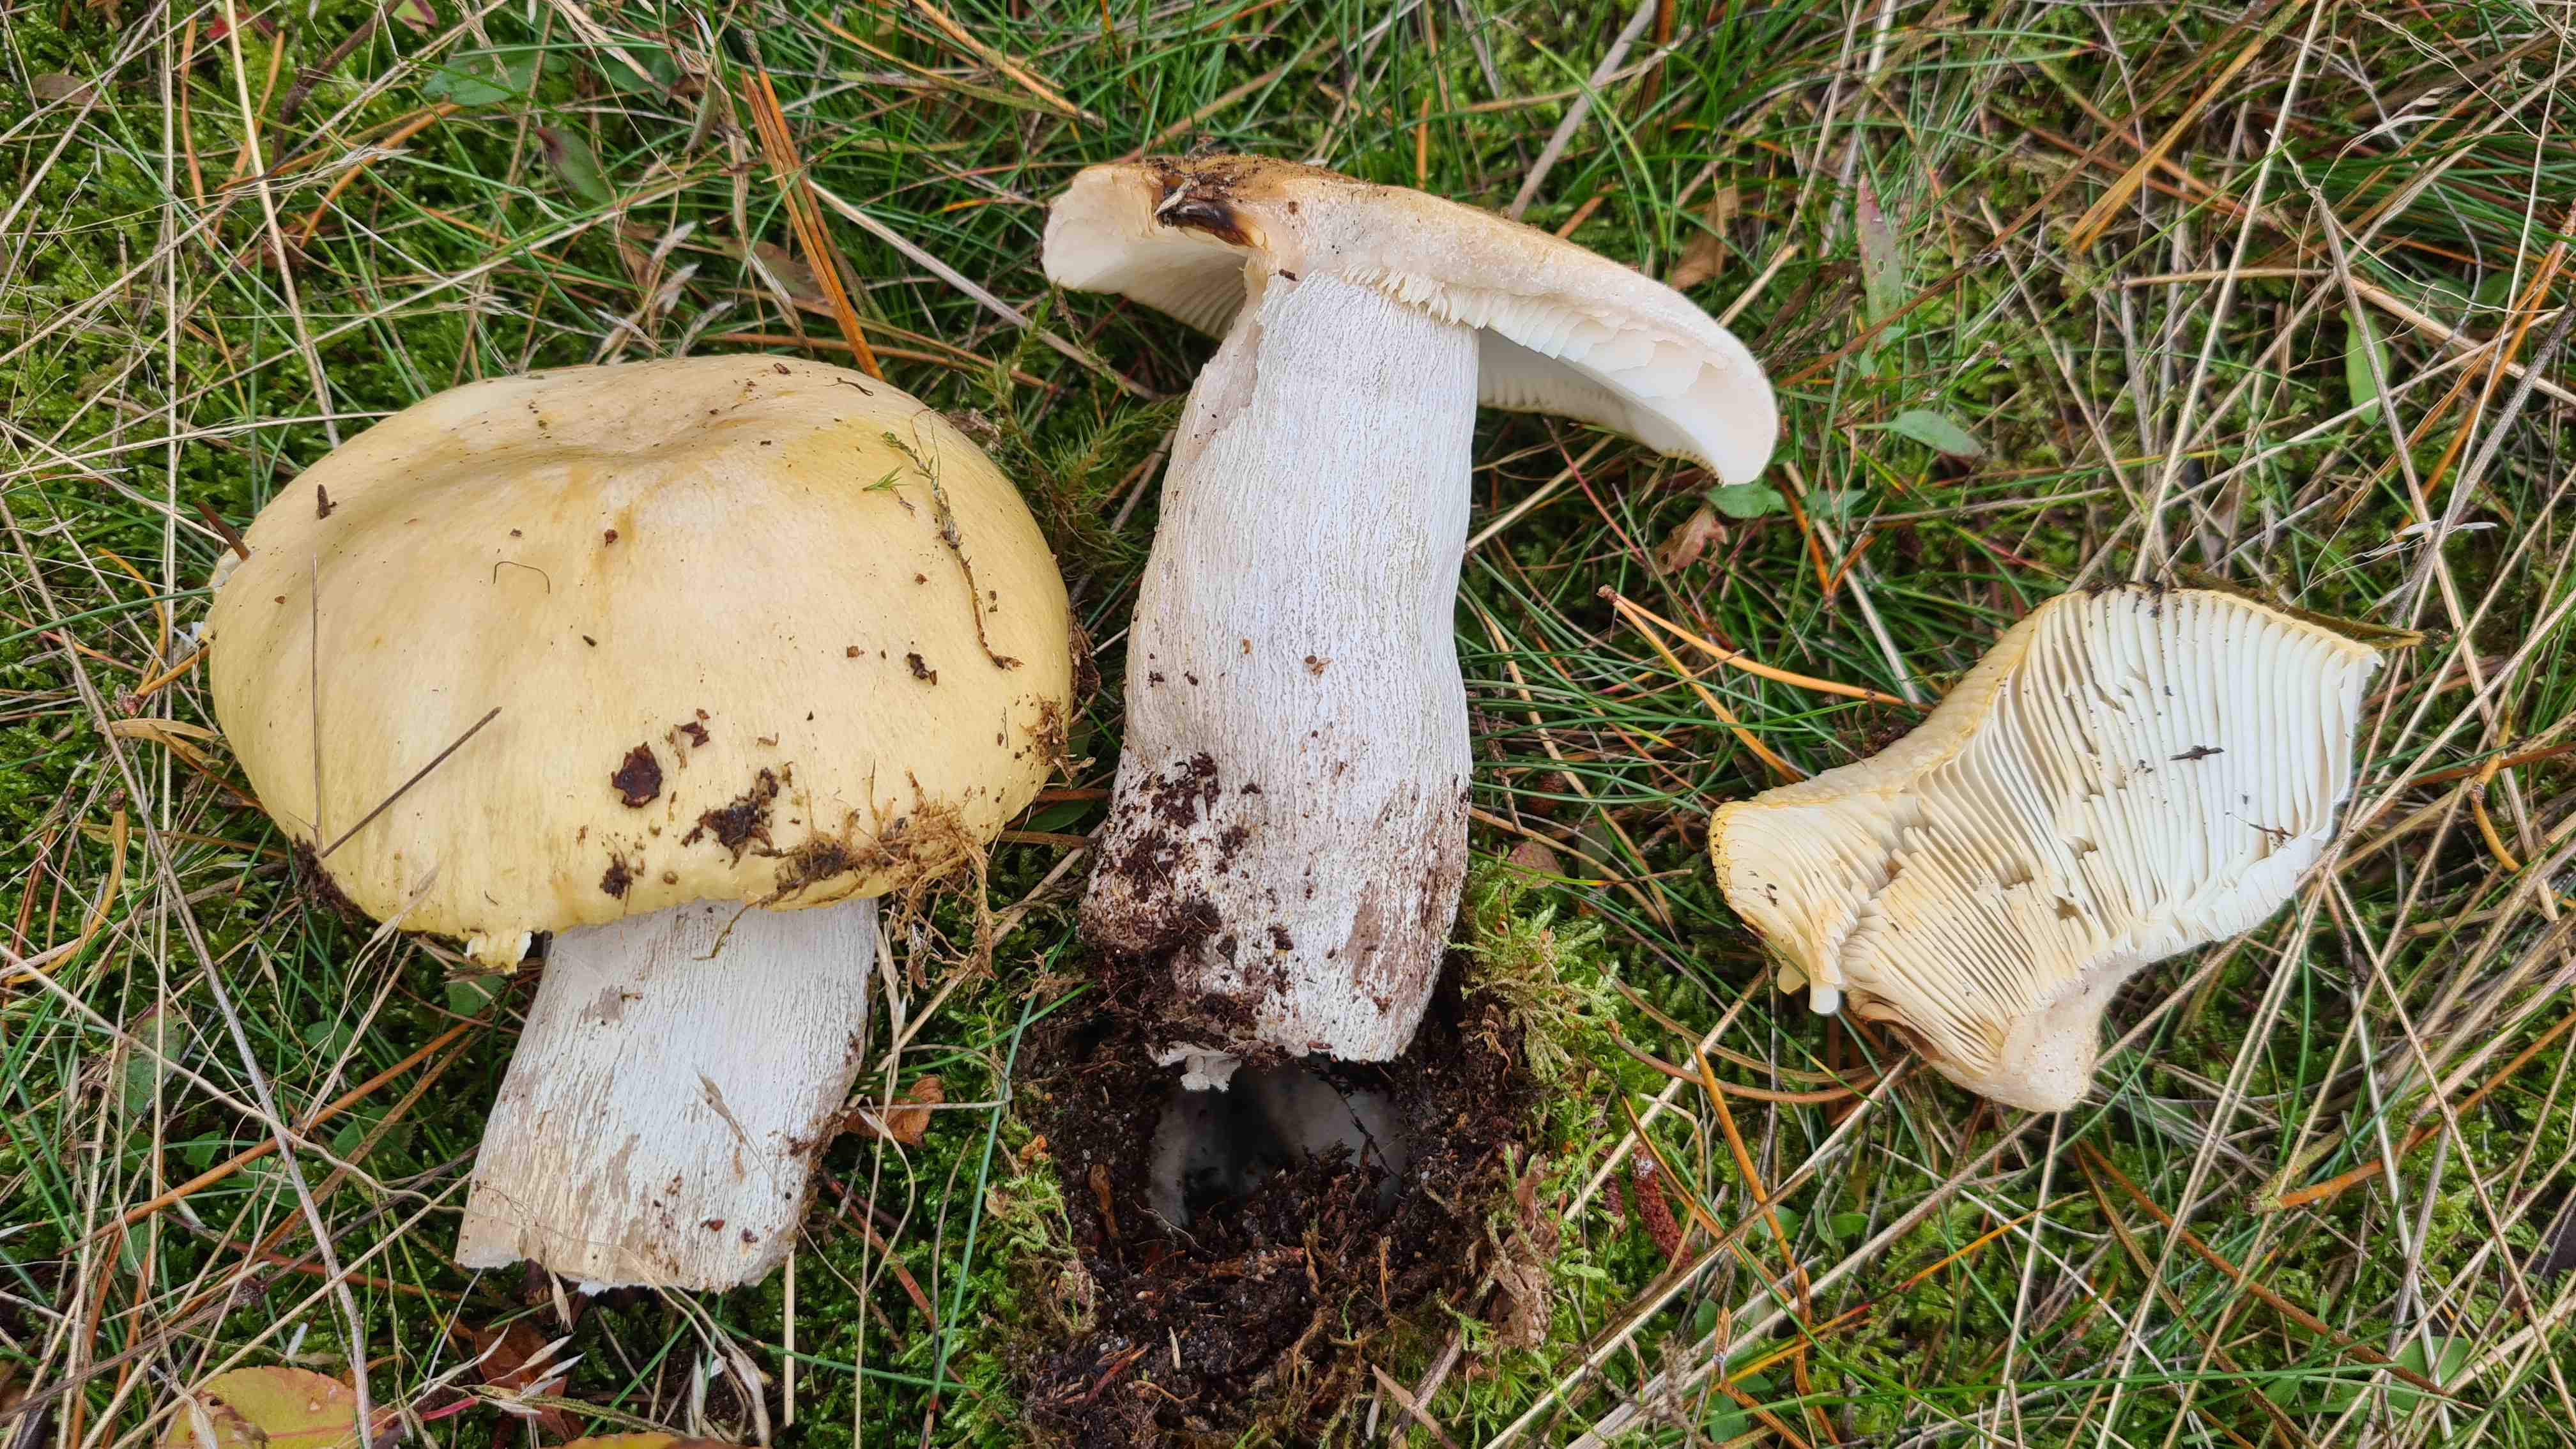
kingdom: Fungi
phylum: Basidiomycota
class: Agaricomycetes
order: Russulales
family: Russulaceae
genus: Russula
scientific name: Russula ochroleuca
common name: okkergul skørhat
